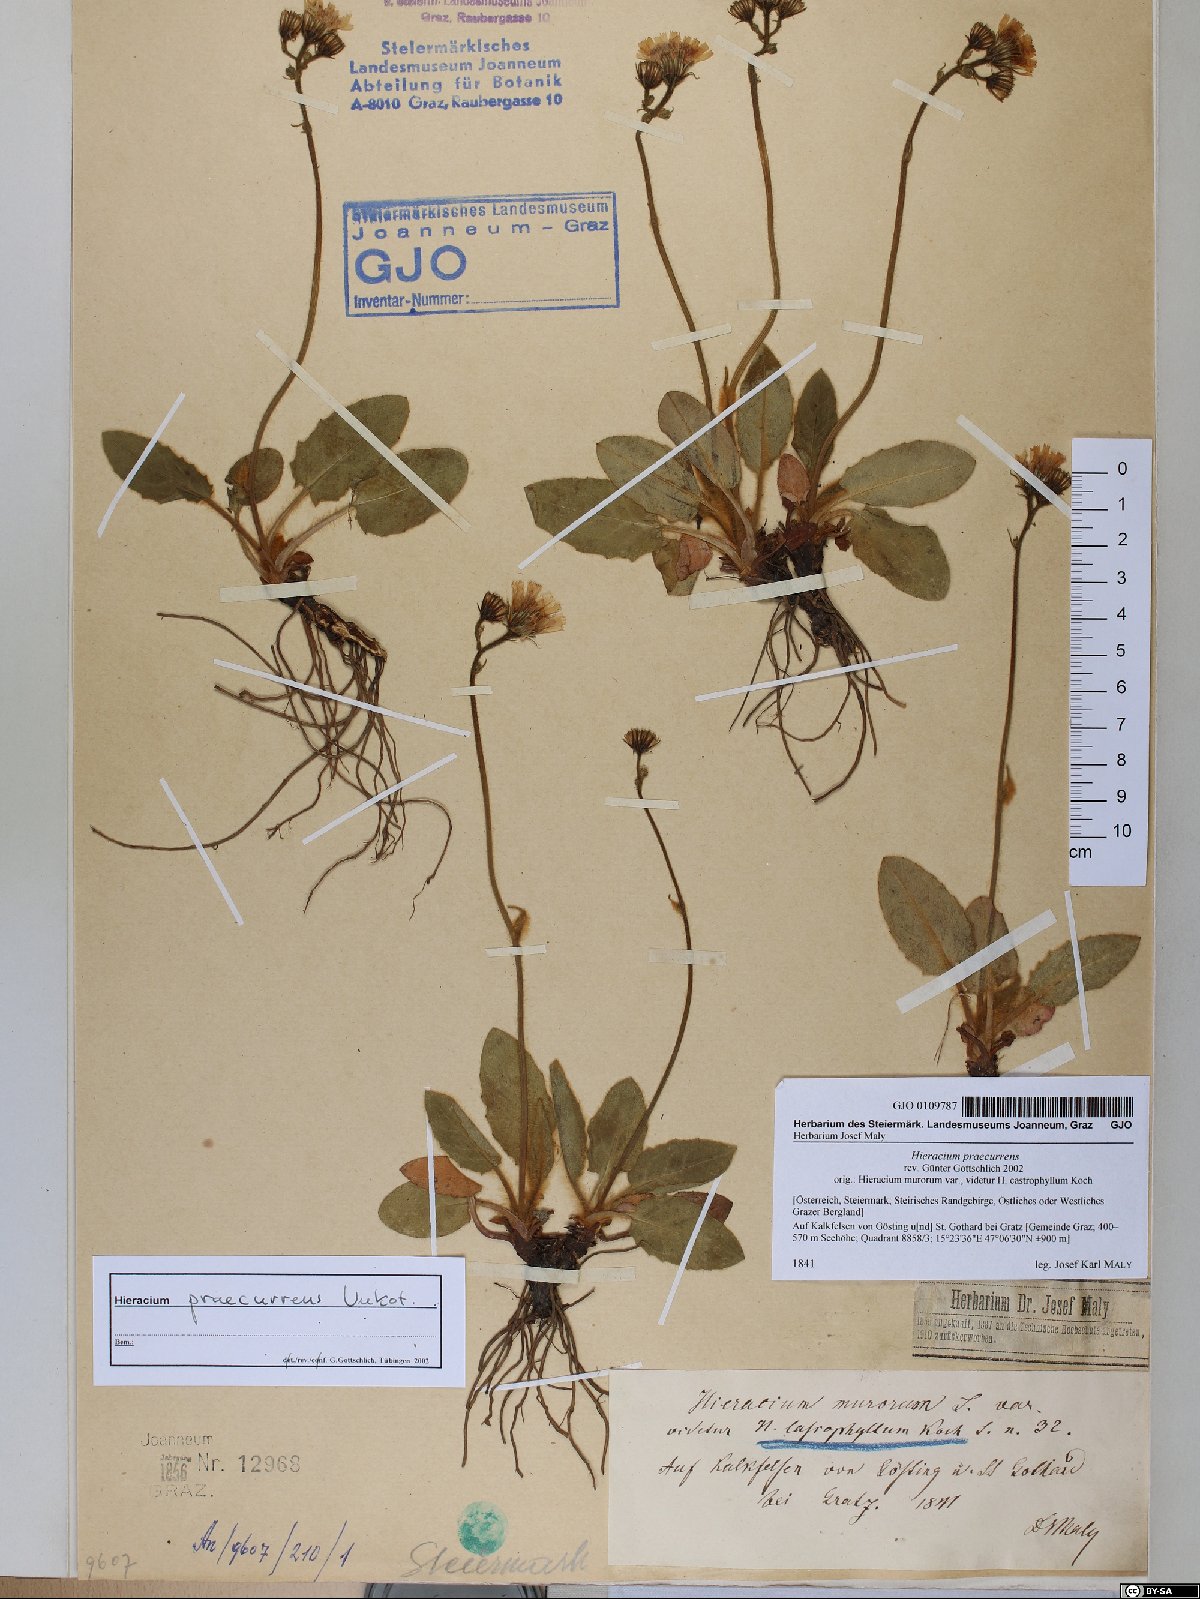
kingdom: Plantae
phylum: Tracheophyta
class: Magnoliopsida
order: Asterales
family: Asteraceae
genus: Hieracium
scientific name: Hieracium rotundatum
